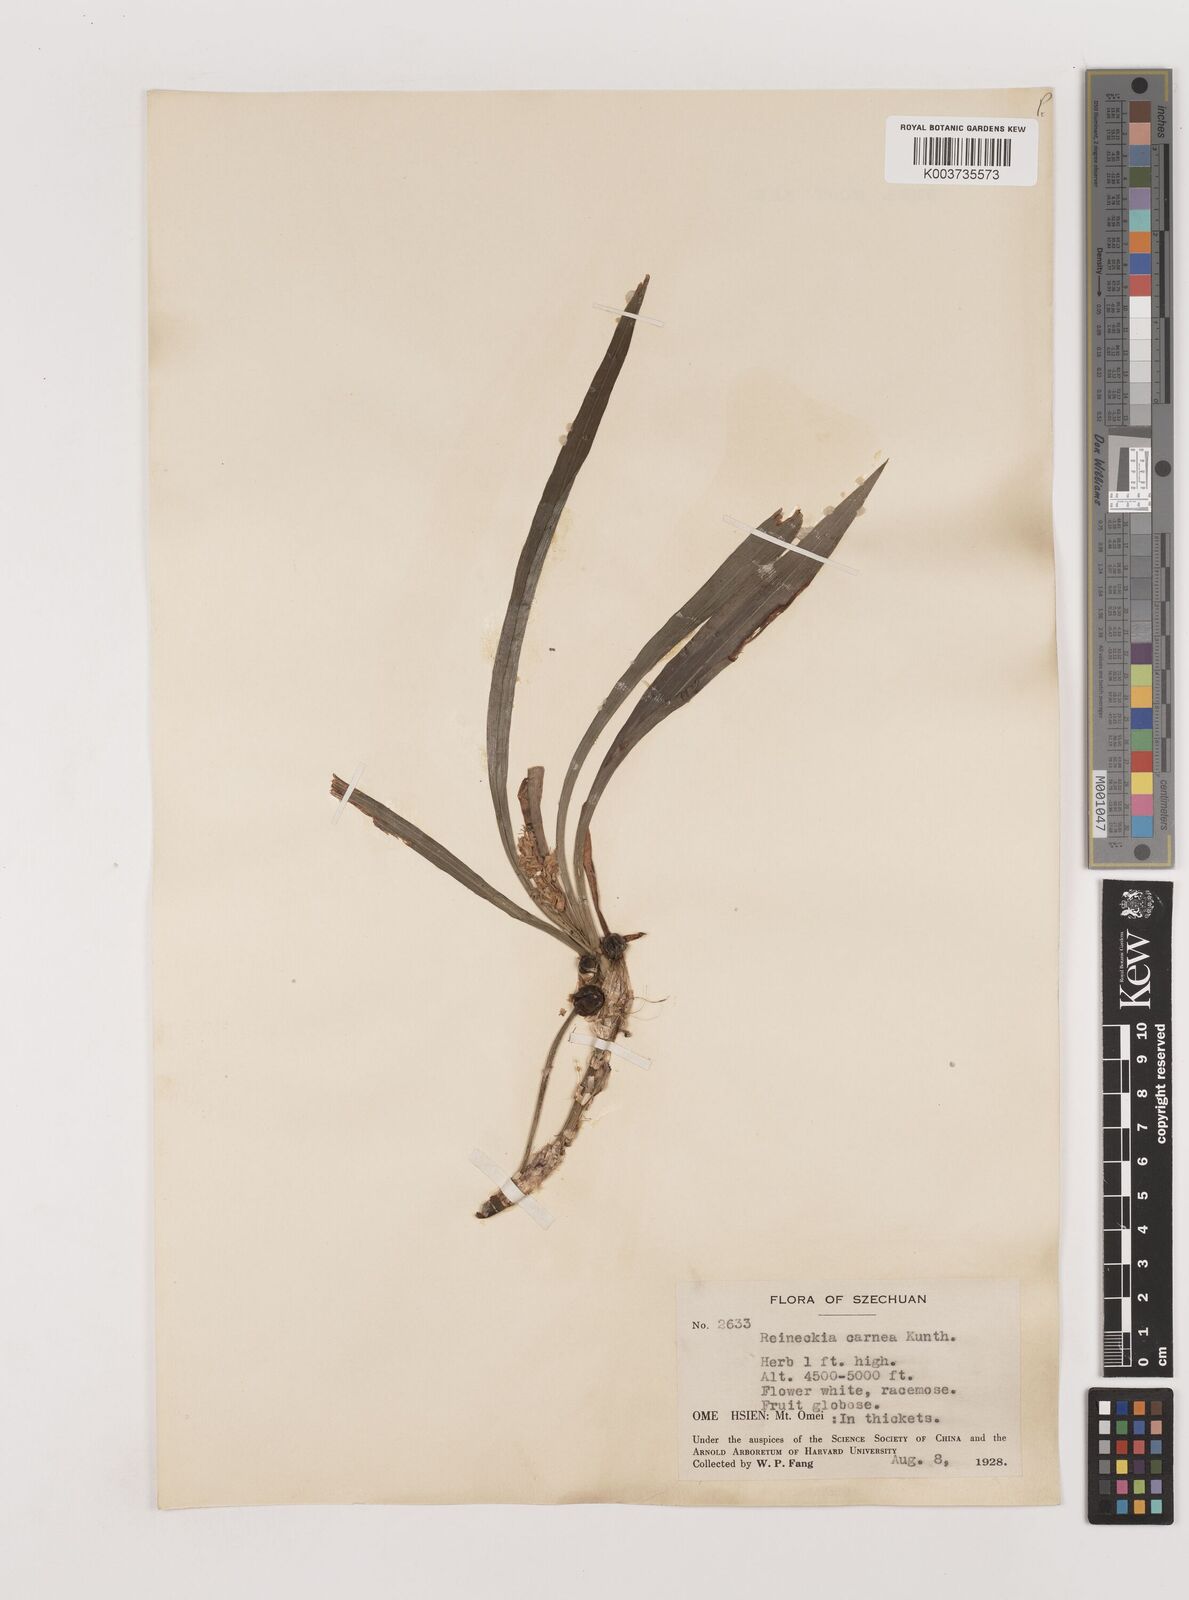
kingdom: Plantae
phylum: Tracheophyta
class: Liliopsida
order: Asparagales
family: Asparagaceae
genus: Reineckea
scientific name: Reineckea carnea
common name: Reineckea
